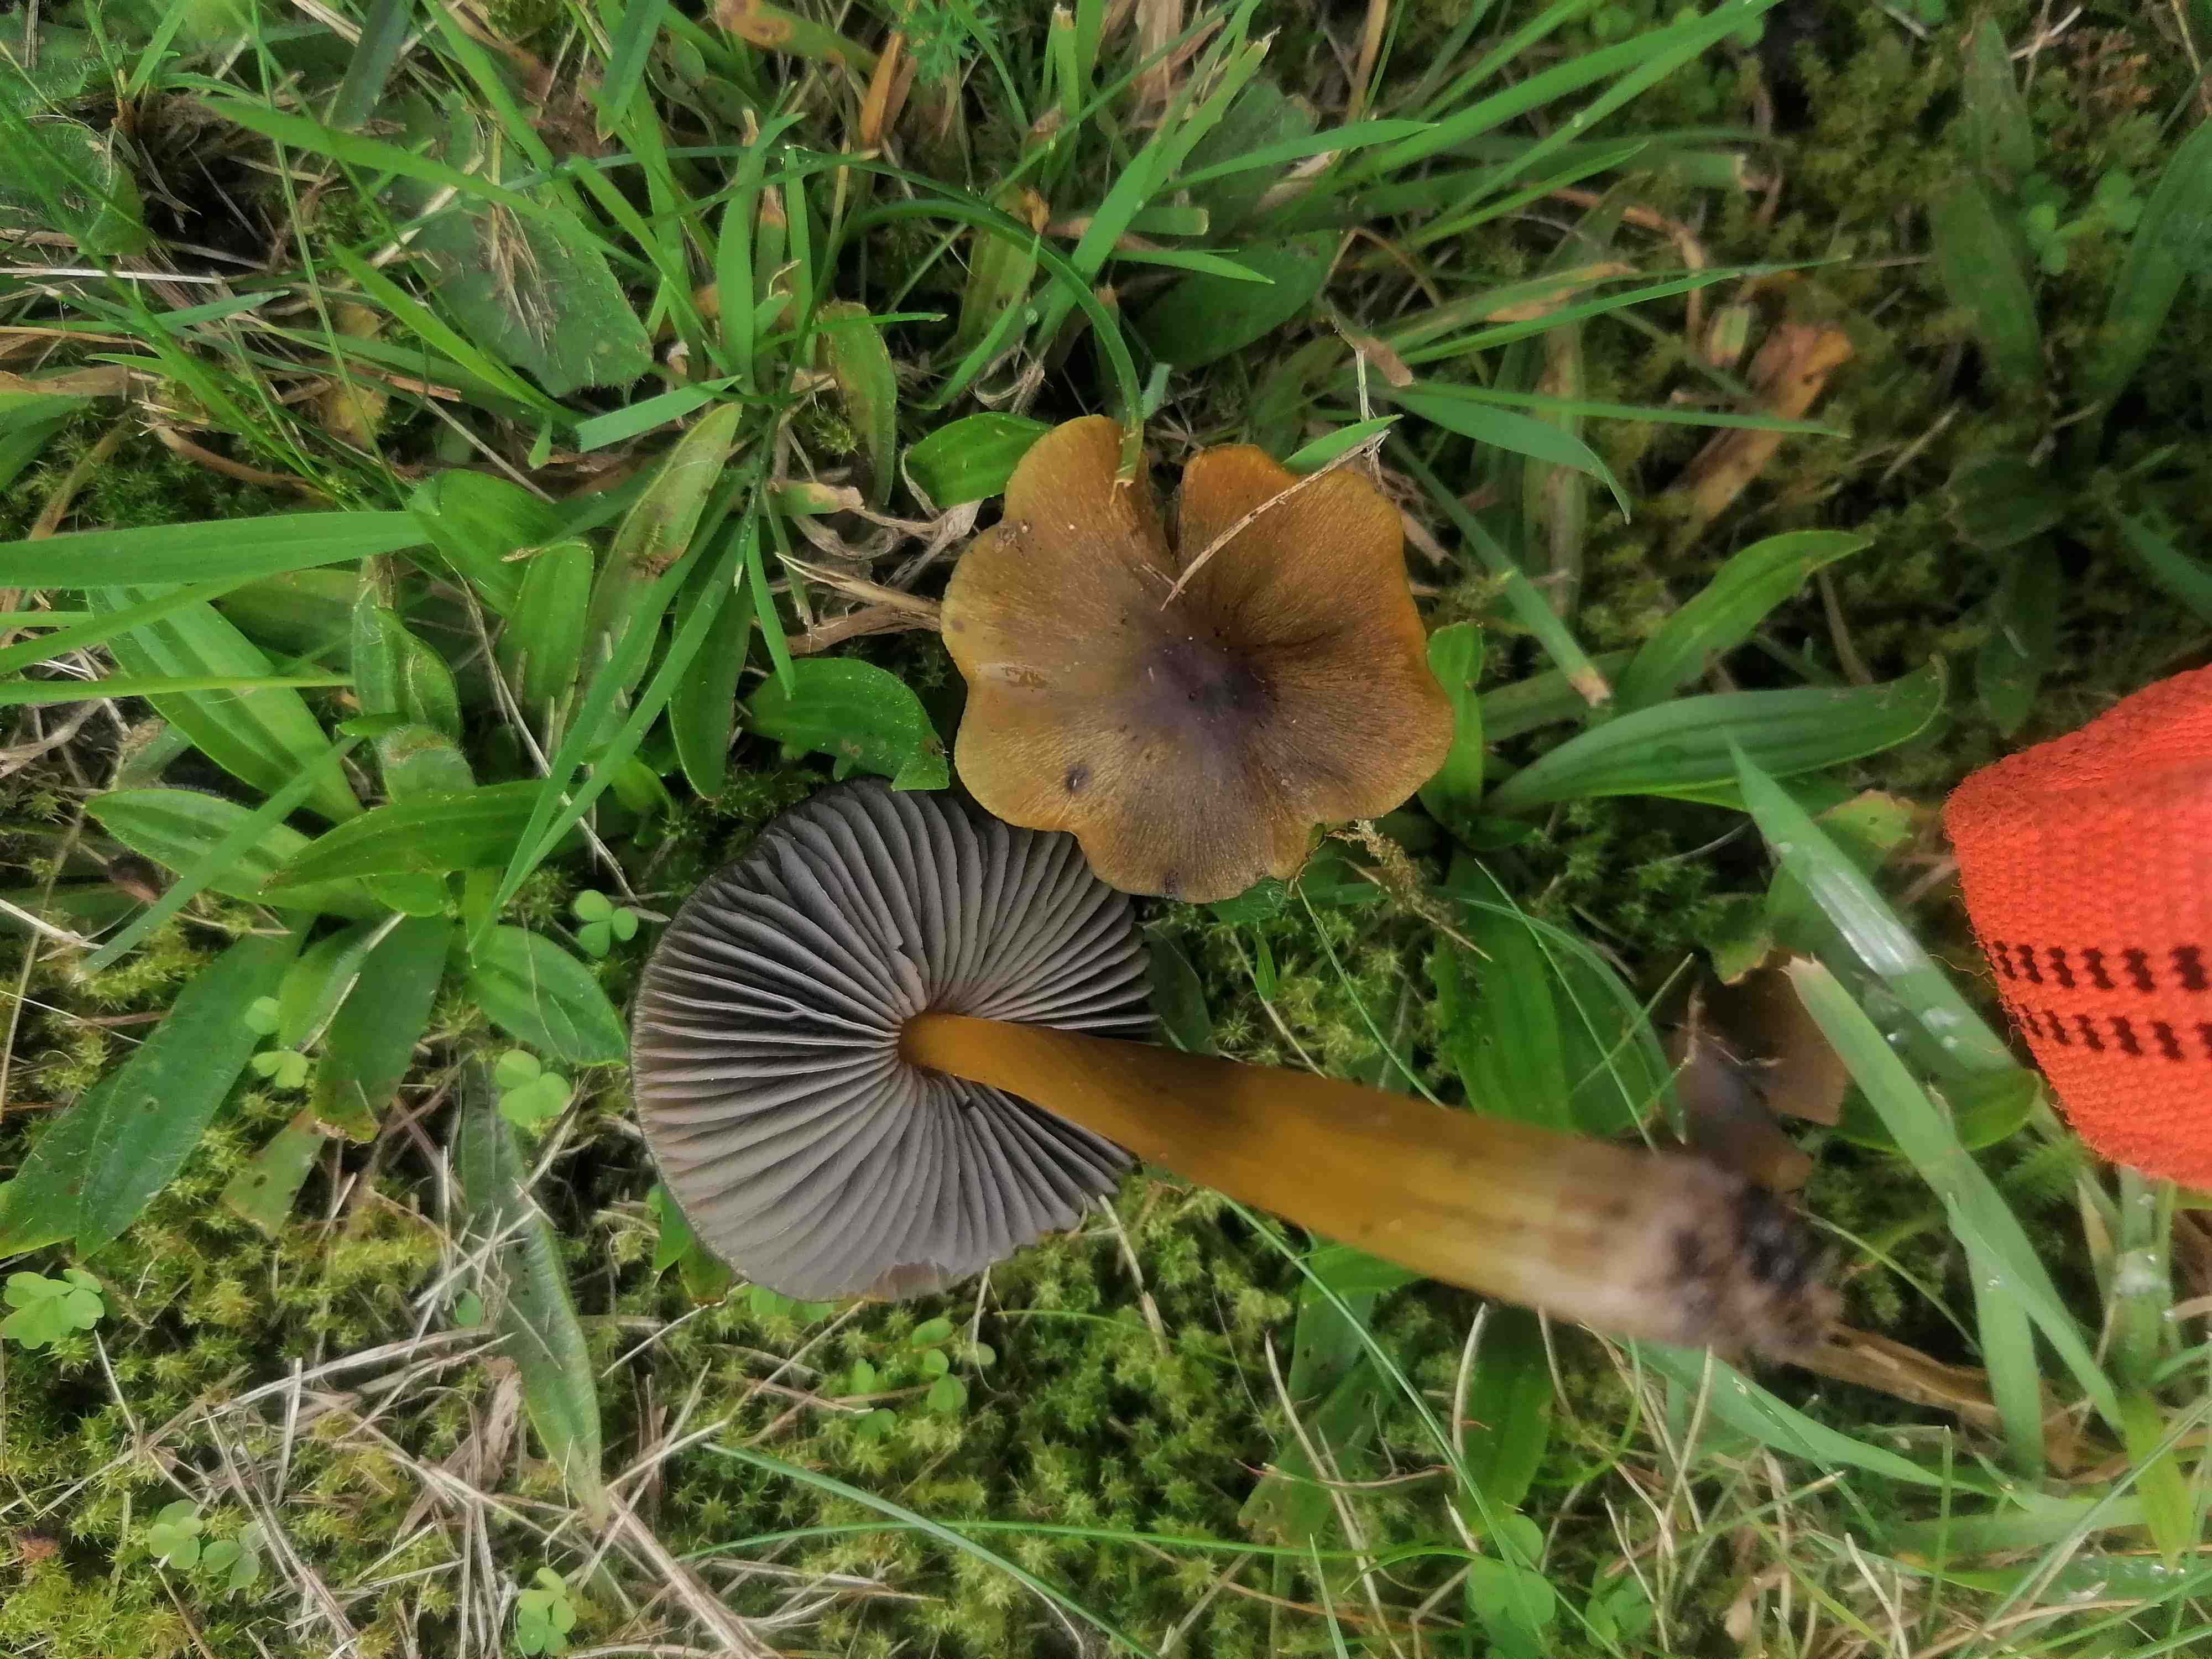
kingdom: Fungi
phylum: Basidiomycota
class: Agaricomycetes
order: Agaricales
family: Hygrophoraceae
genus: Hygrocybe
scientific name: Hygrocybe conica
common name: kegle-vokshat
